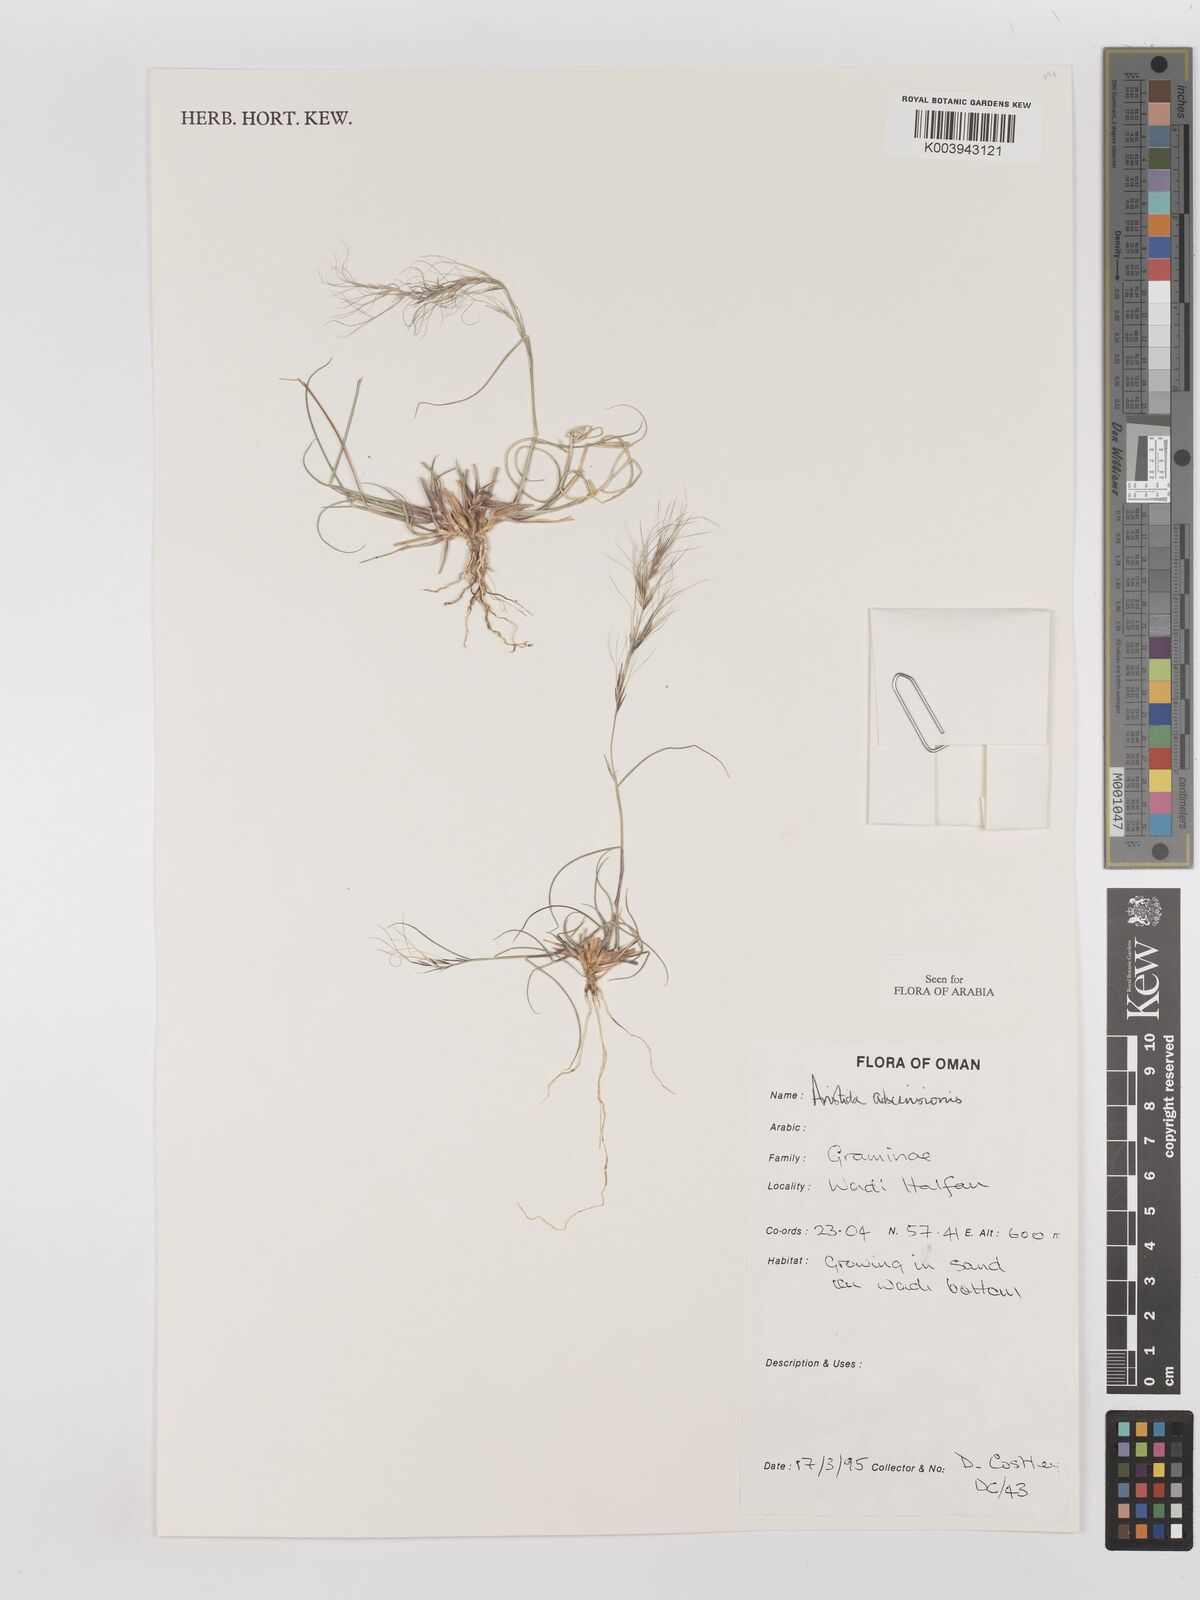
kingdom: Plantae
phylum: Tracheophyta
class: Liliopsida
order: Poales
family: Poaceae
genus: Aristida
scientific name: Aristida adscensionis
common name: Sixweeks threeawn
